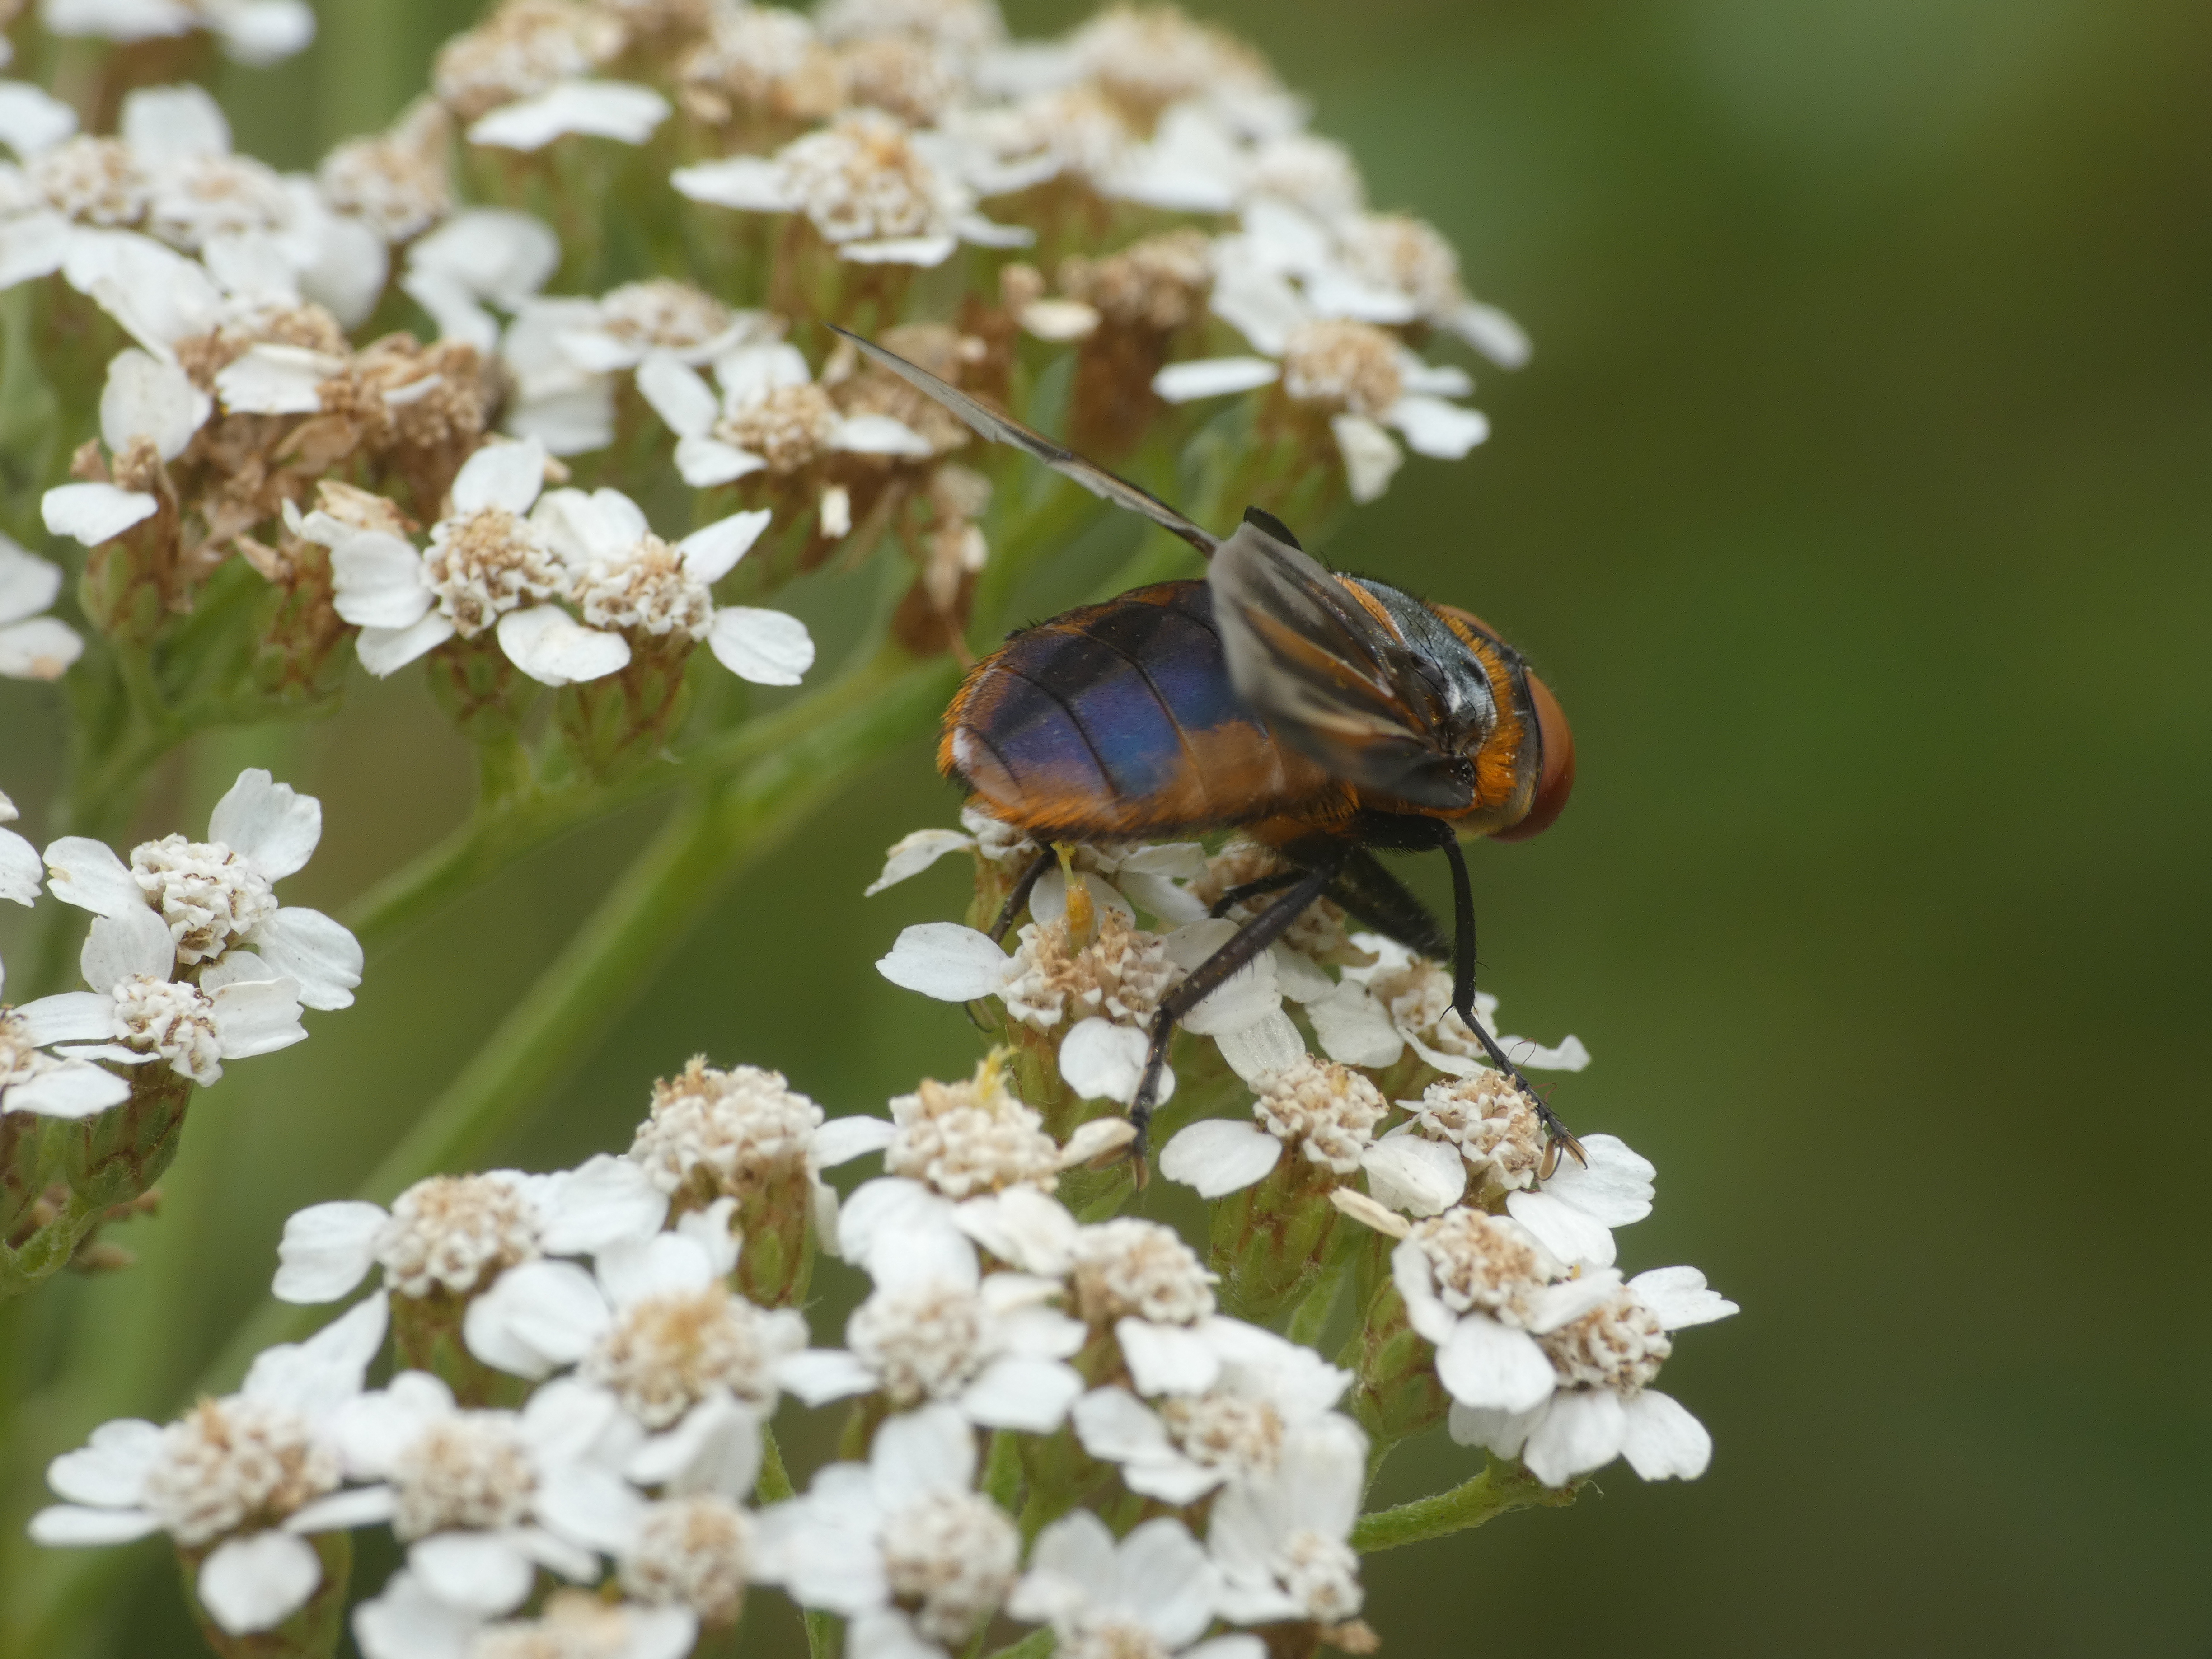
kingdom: Animalia
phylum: Arthropoda
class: Insecta
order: Diptera
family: Tachinidae
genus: Phasia
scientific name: Phasia hemiptera
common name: Blåvinget pragtsnylteflue
